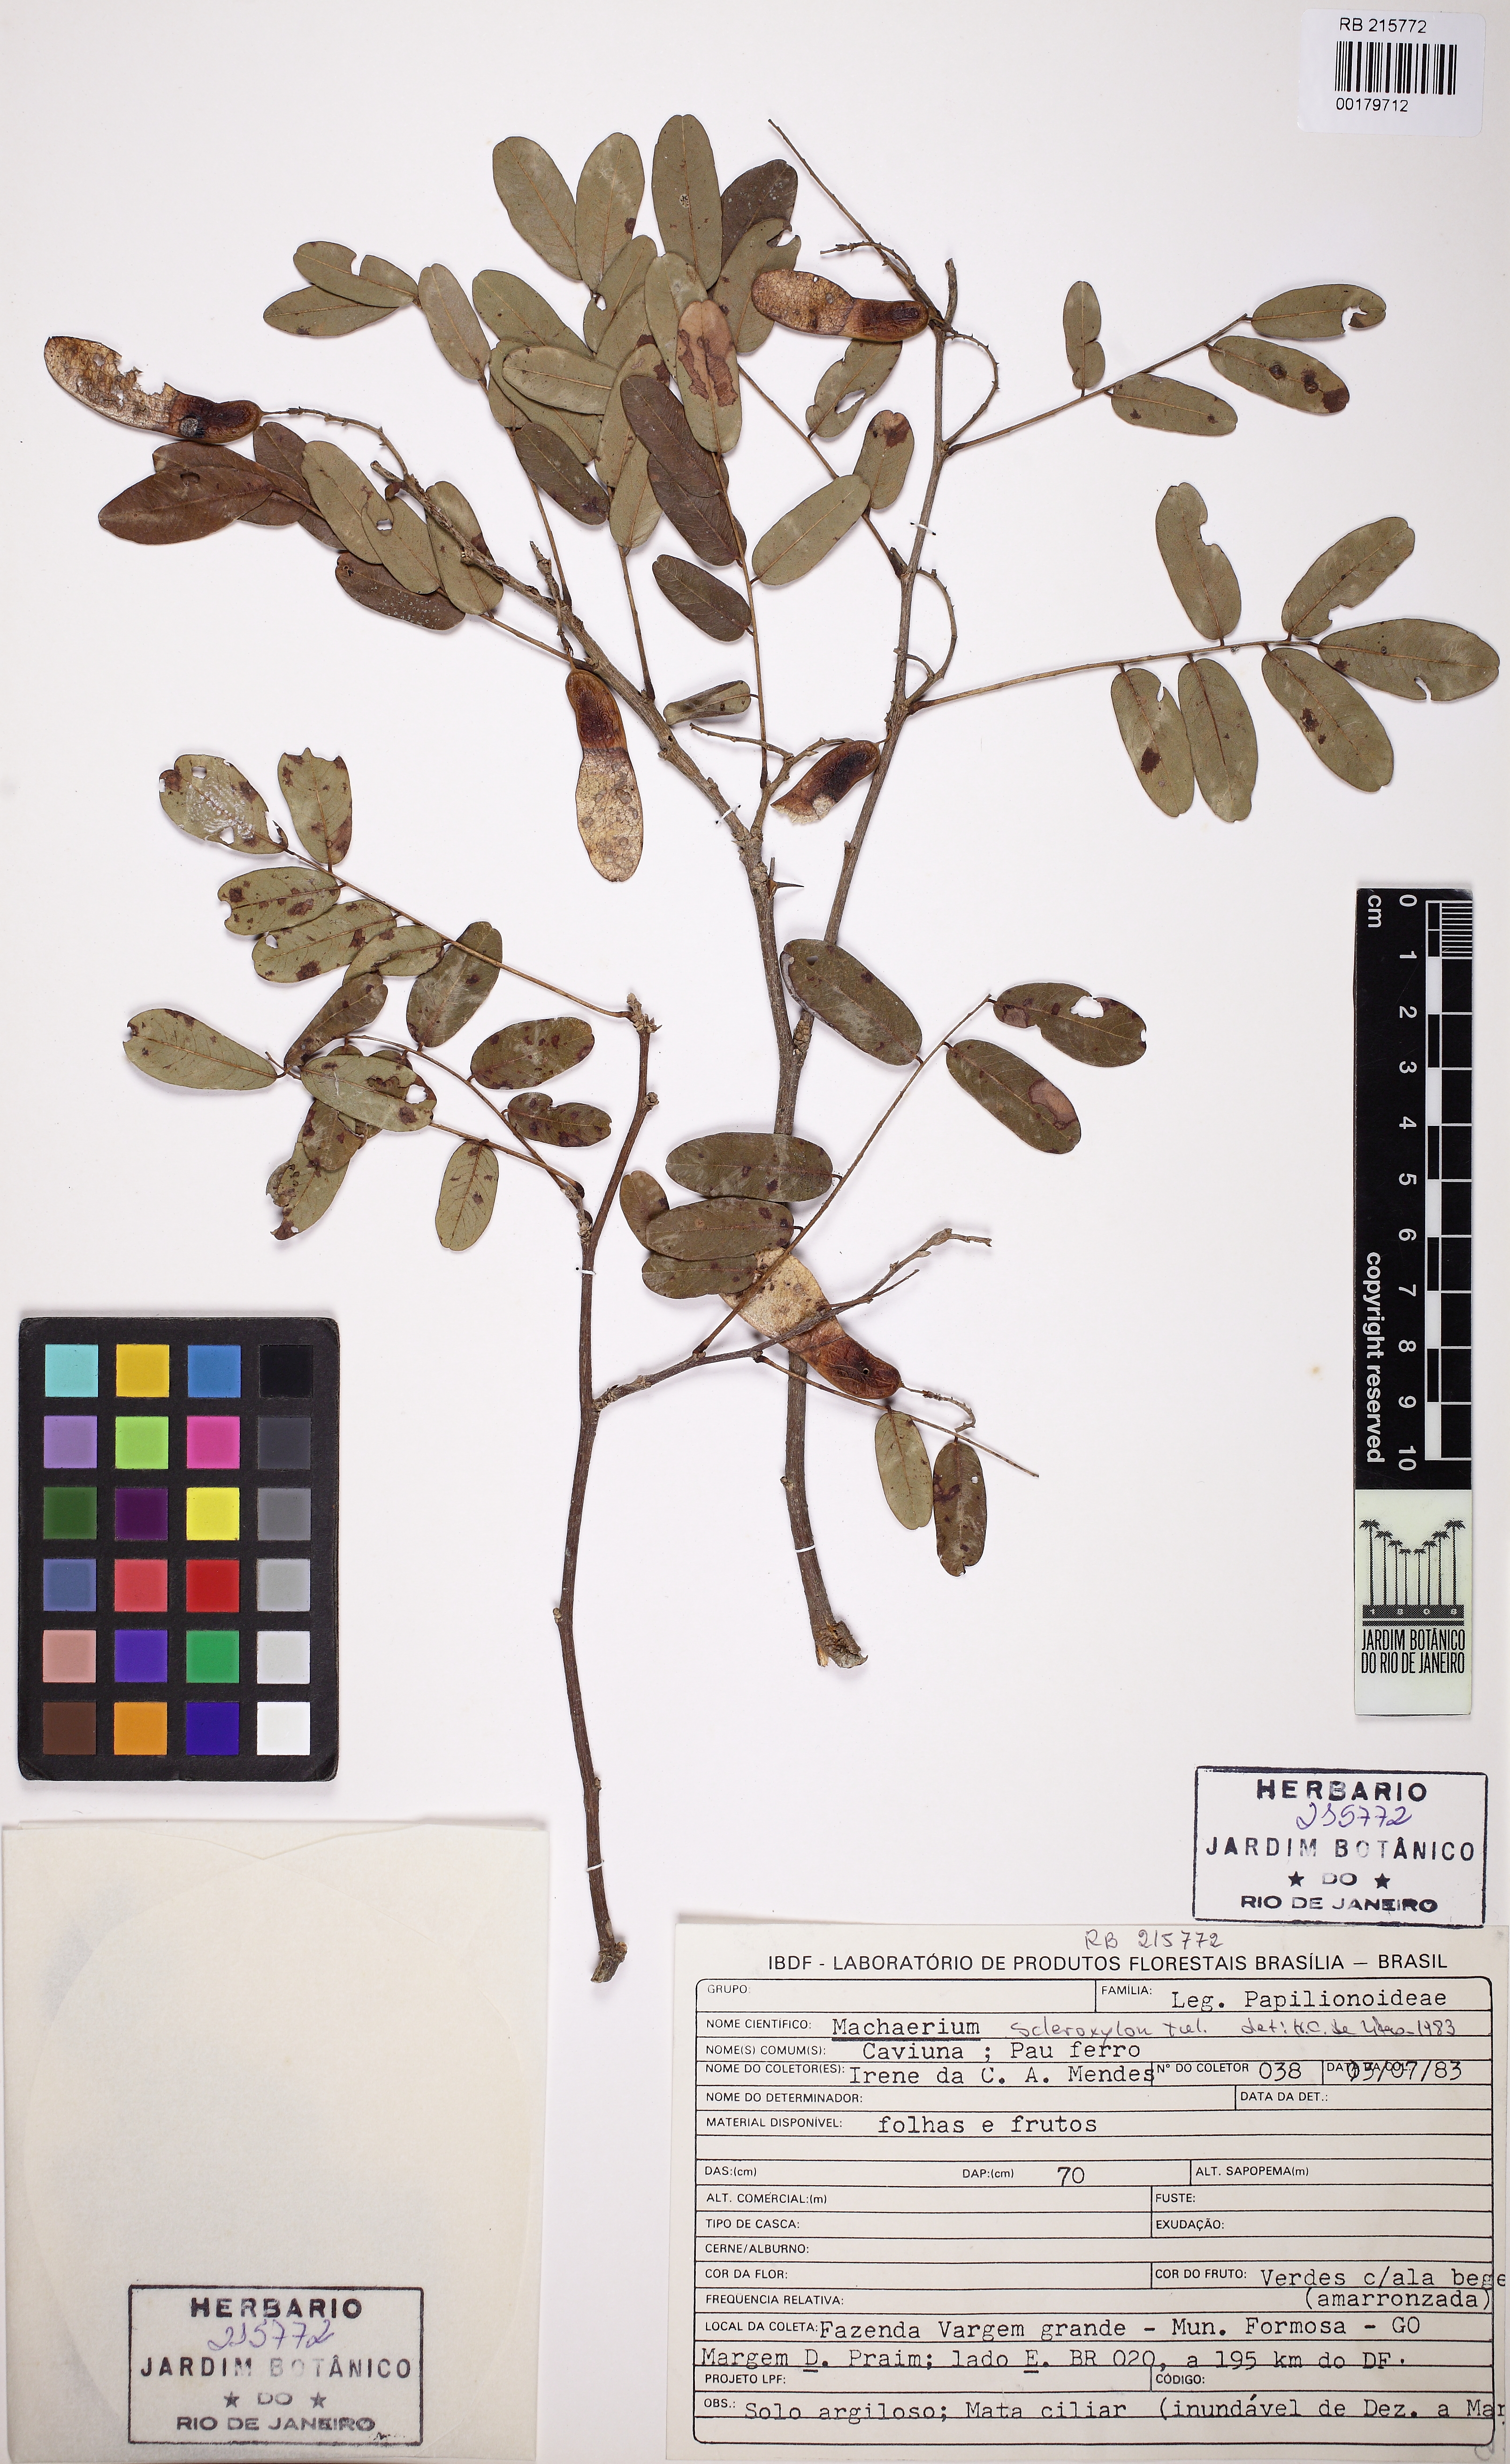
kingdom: Plantae
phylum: Tracheophyta
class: Magnoliopsida
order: Fabales
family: Fabaceae
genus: Machaerium
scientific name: Machaerium scleroxylon
